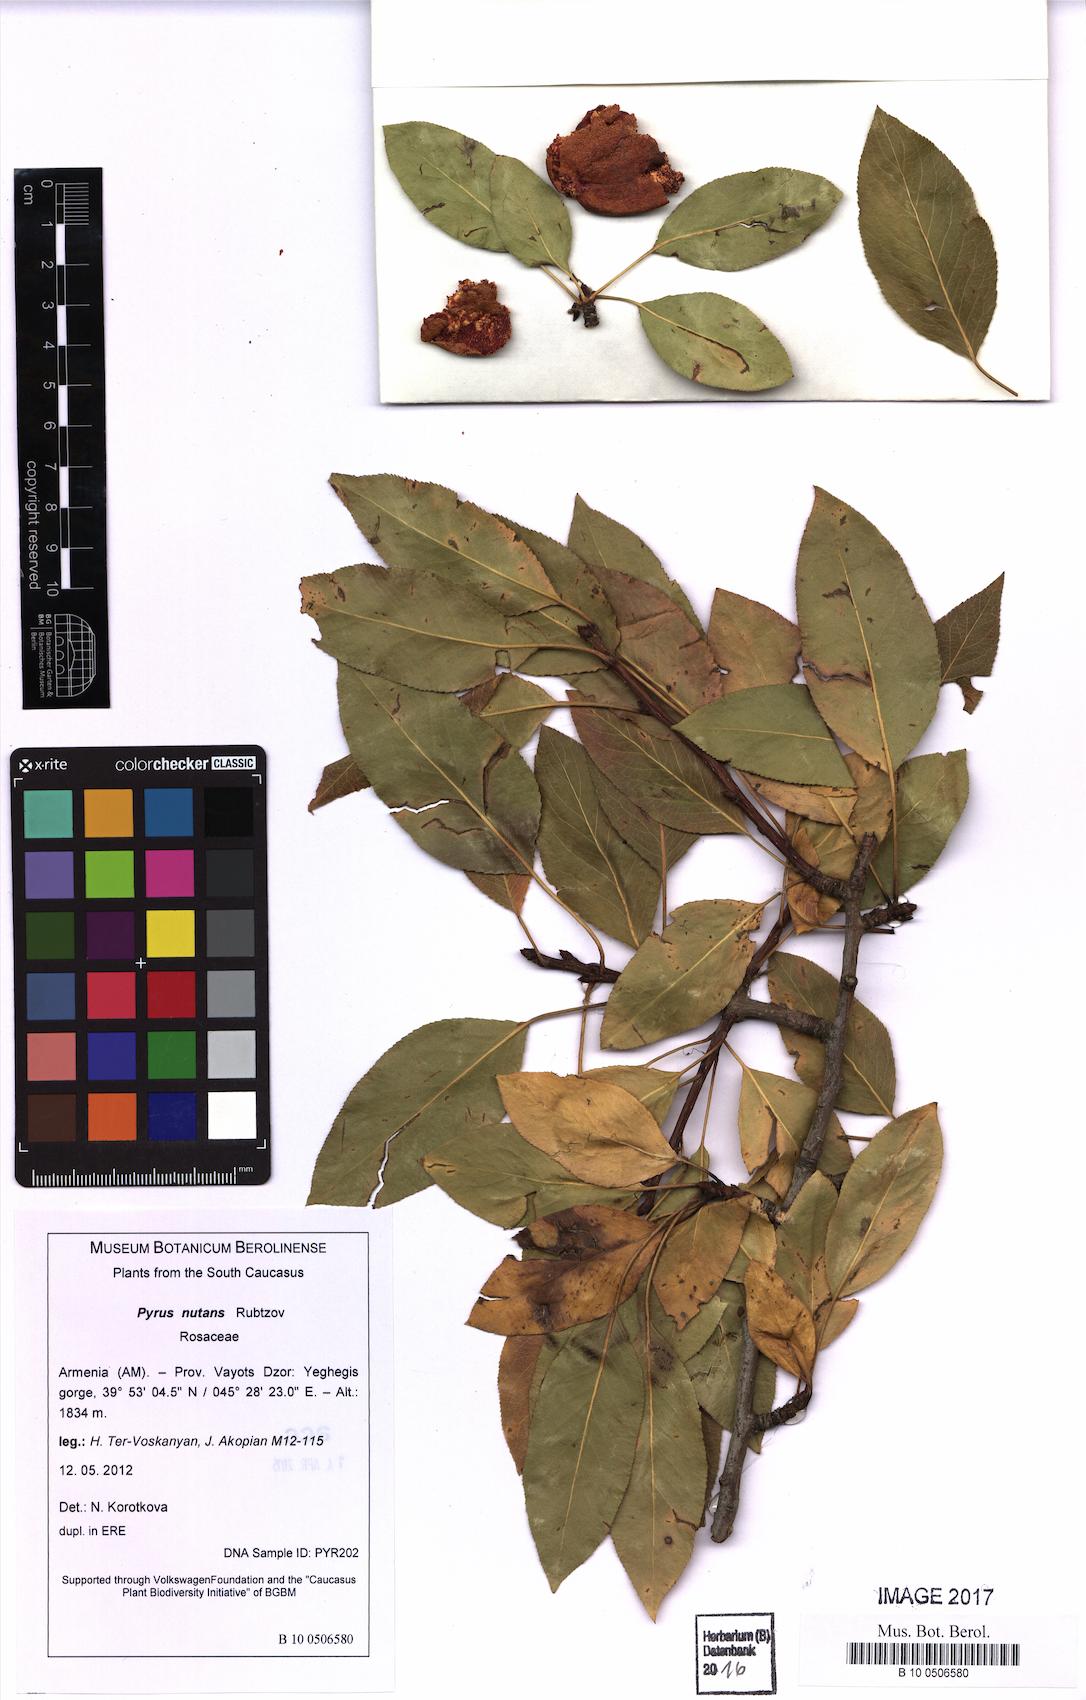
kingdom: Plantae
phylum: Tracheophyta
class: Magnoliopsida
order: Rosales
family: Rosaceae
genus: Pyrus
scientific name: Pyrus nutans
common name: Drooping pear
